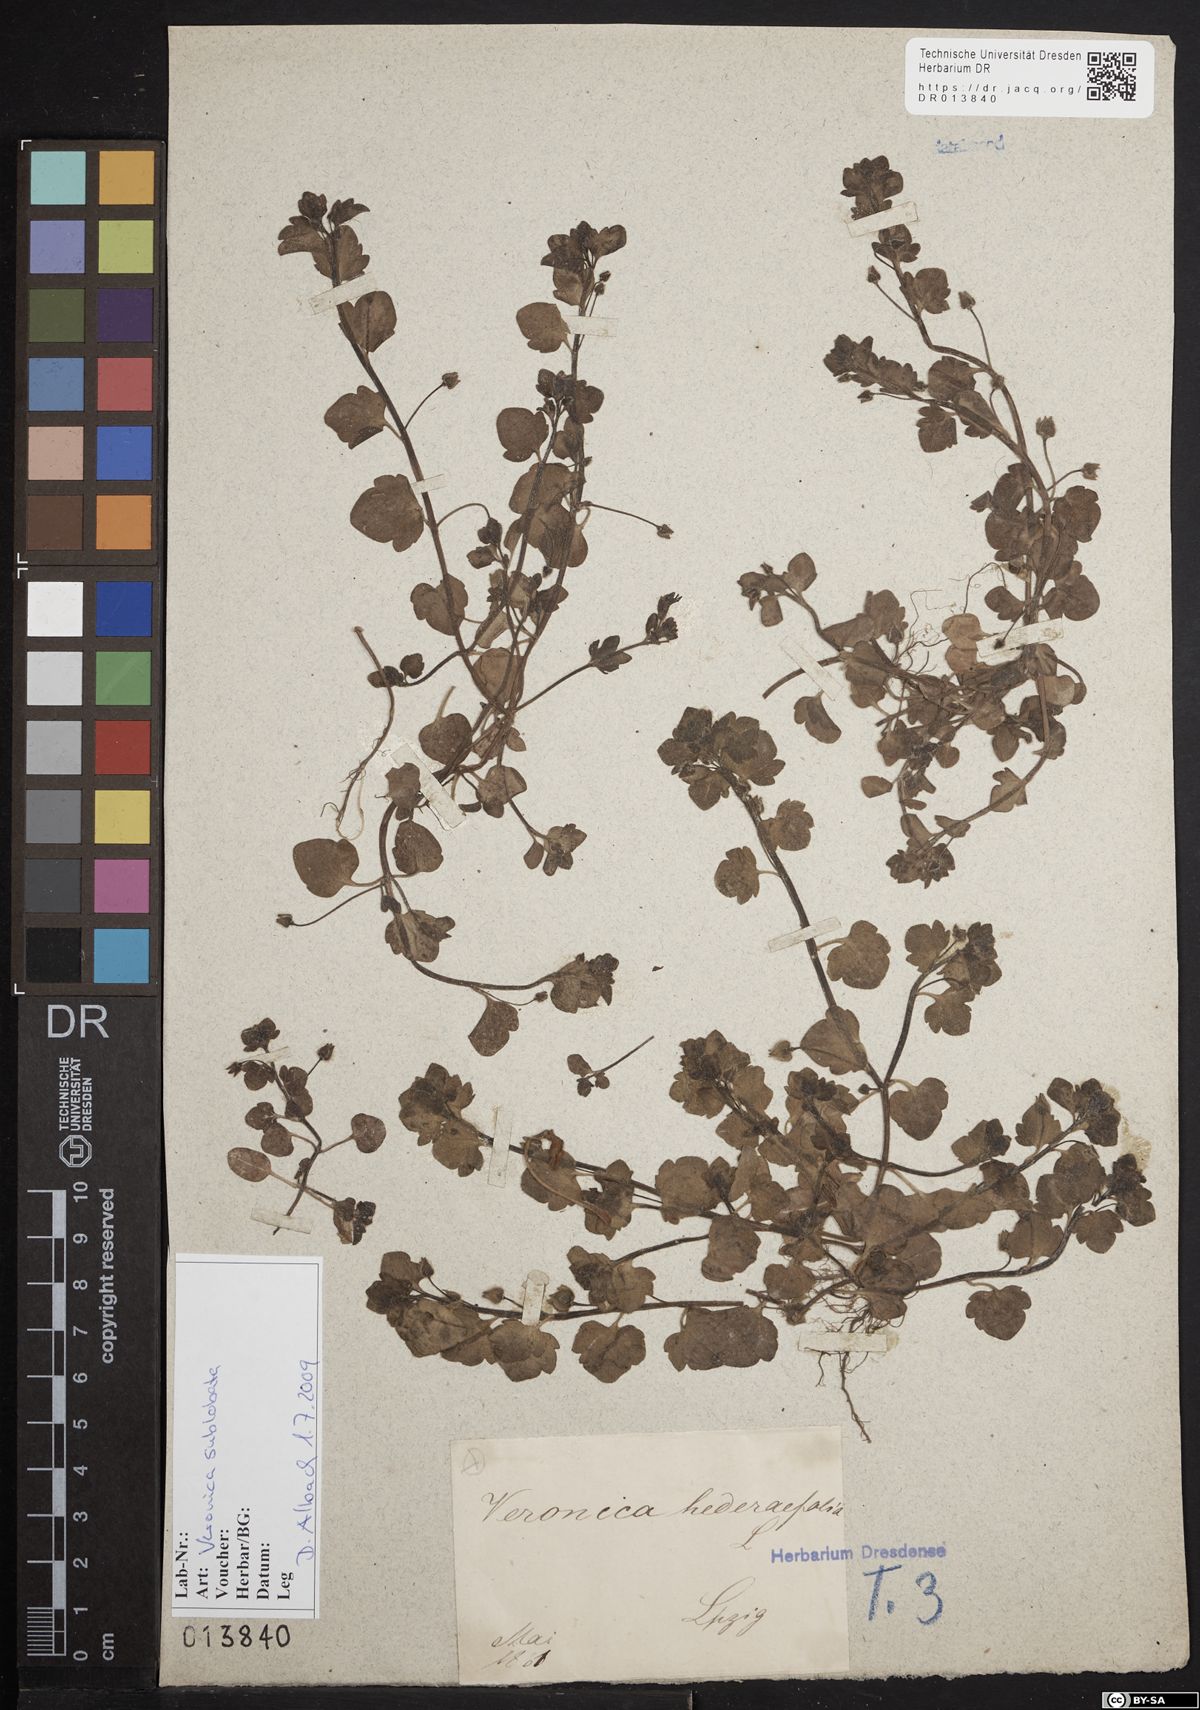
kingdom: Plantae
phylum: Tracheophyta
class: Magnoliopsida
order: Lamiales
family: Plantaginaceae
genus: Veronica
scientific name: Veronica sublobata
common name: False ivy-leaved speedwell
